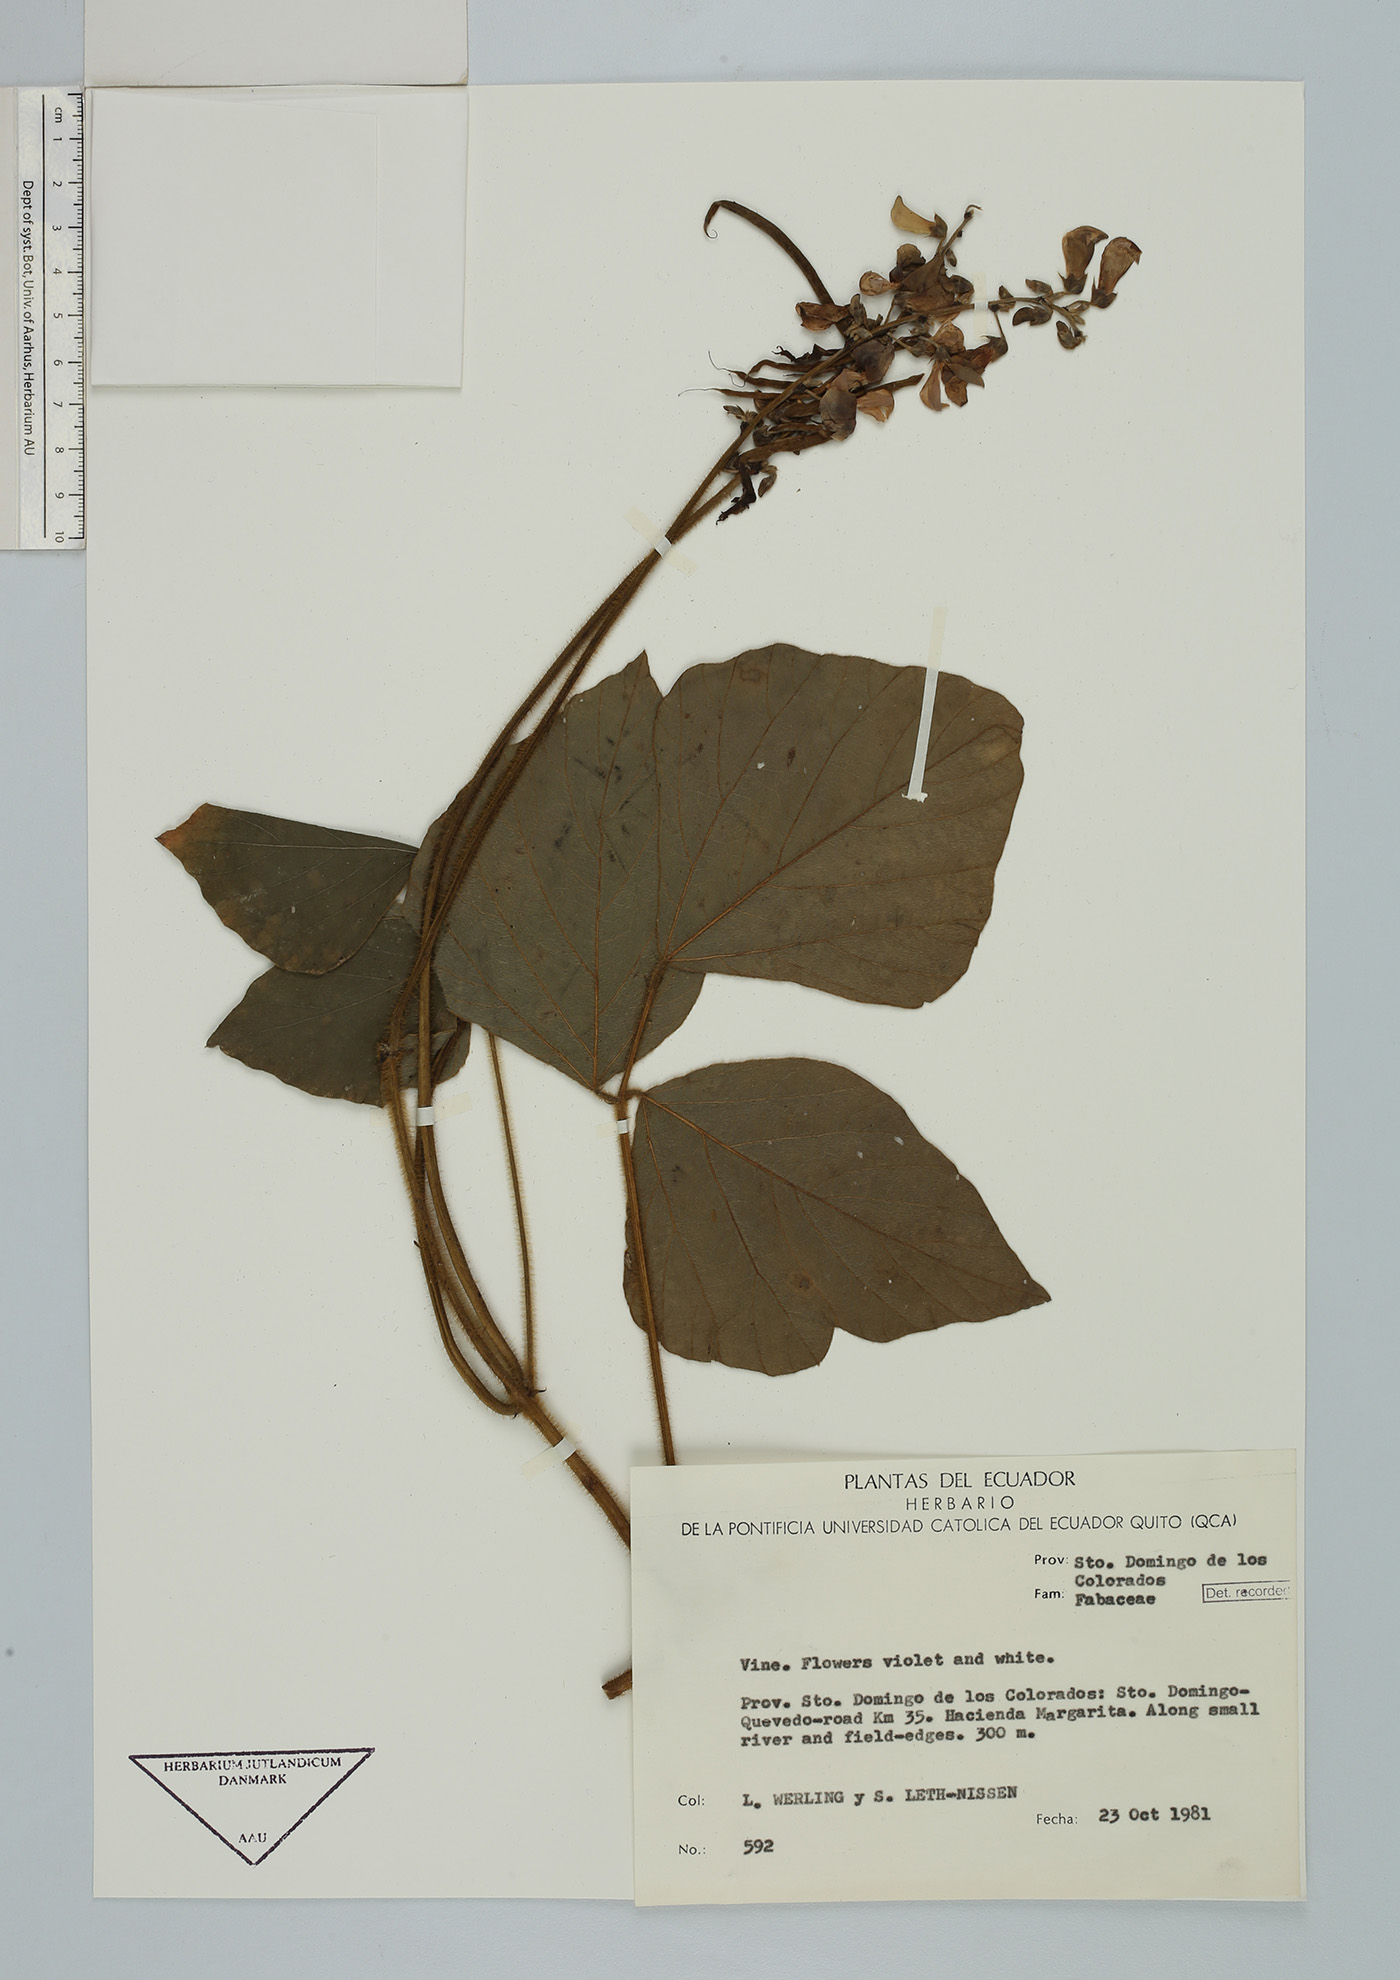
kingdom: Plantae
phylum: Tracheophyta
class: Magnoliopsida
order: Fabales
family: Fabaceae
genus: Neustanthus
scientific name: Neustanthus phaseoloides
